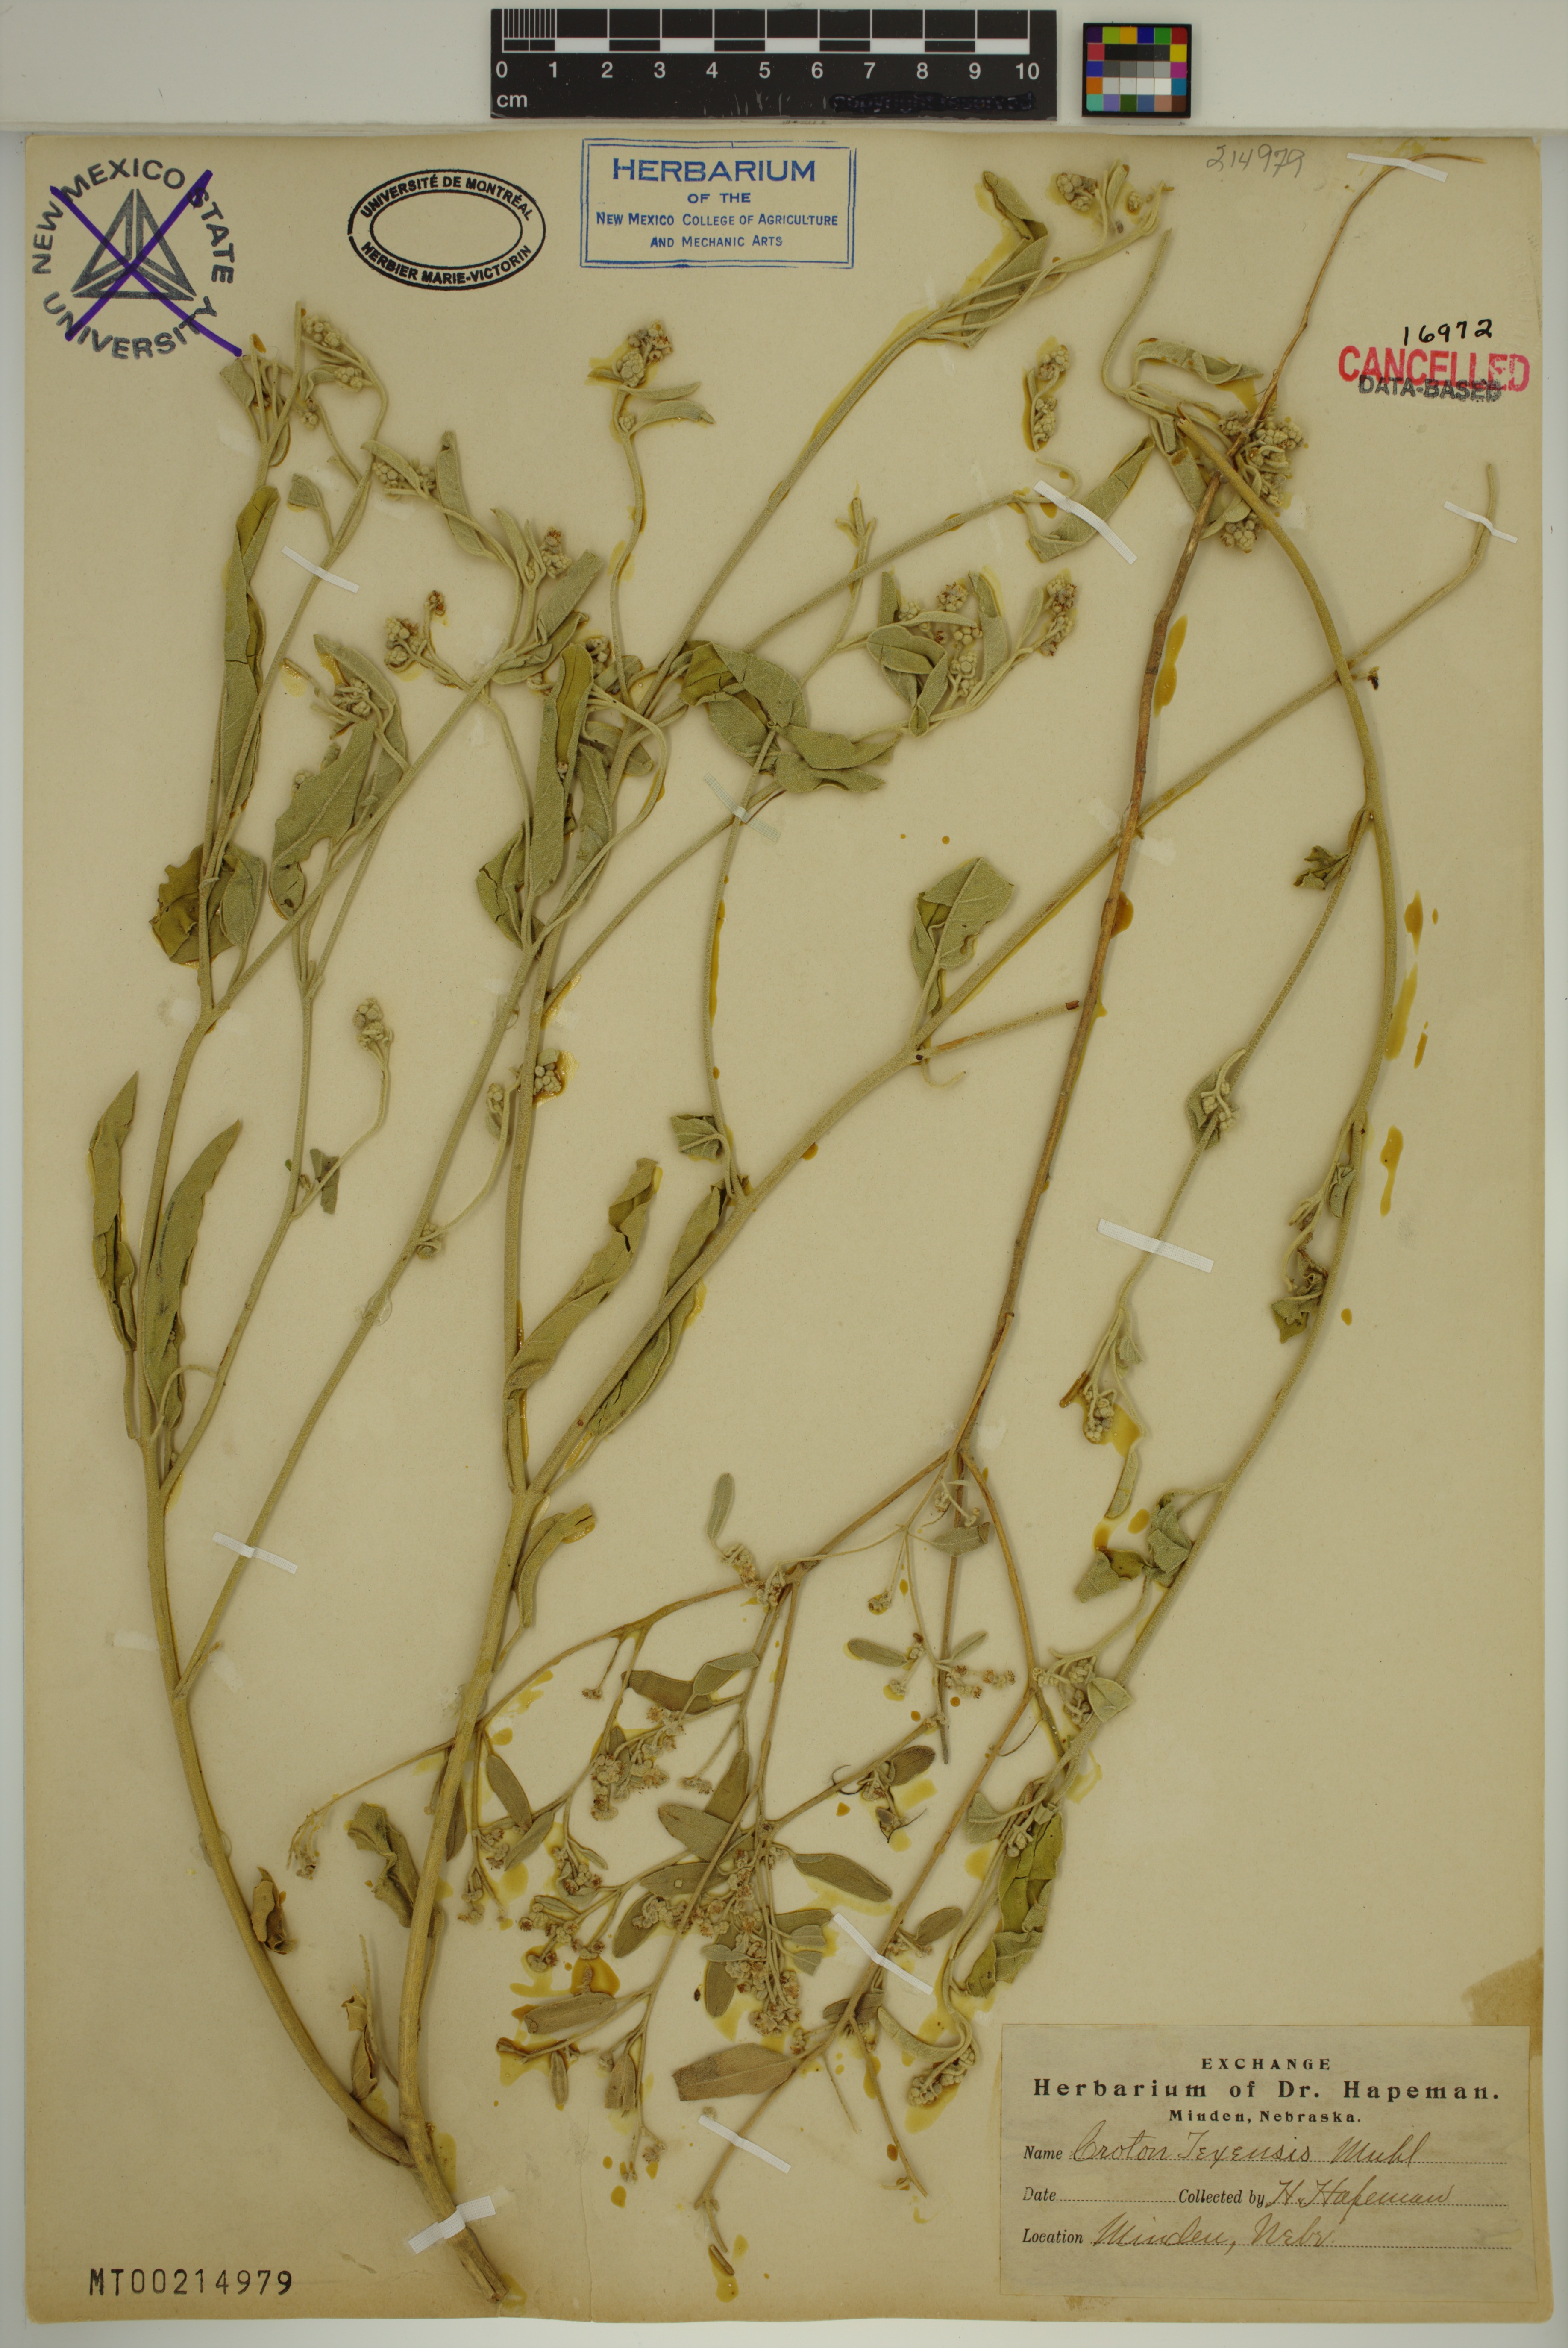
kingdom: Plantae
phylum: Tracheophyta
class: Magnoliopsida
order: Malpighiales
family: Euphorbiaceae
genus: Croton
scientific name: Croton texensis
